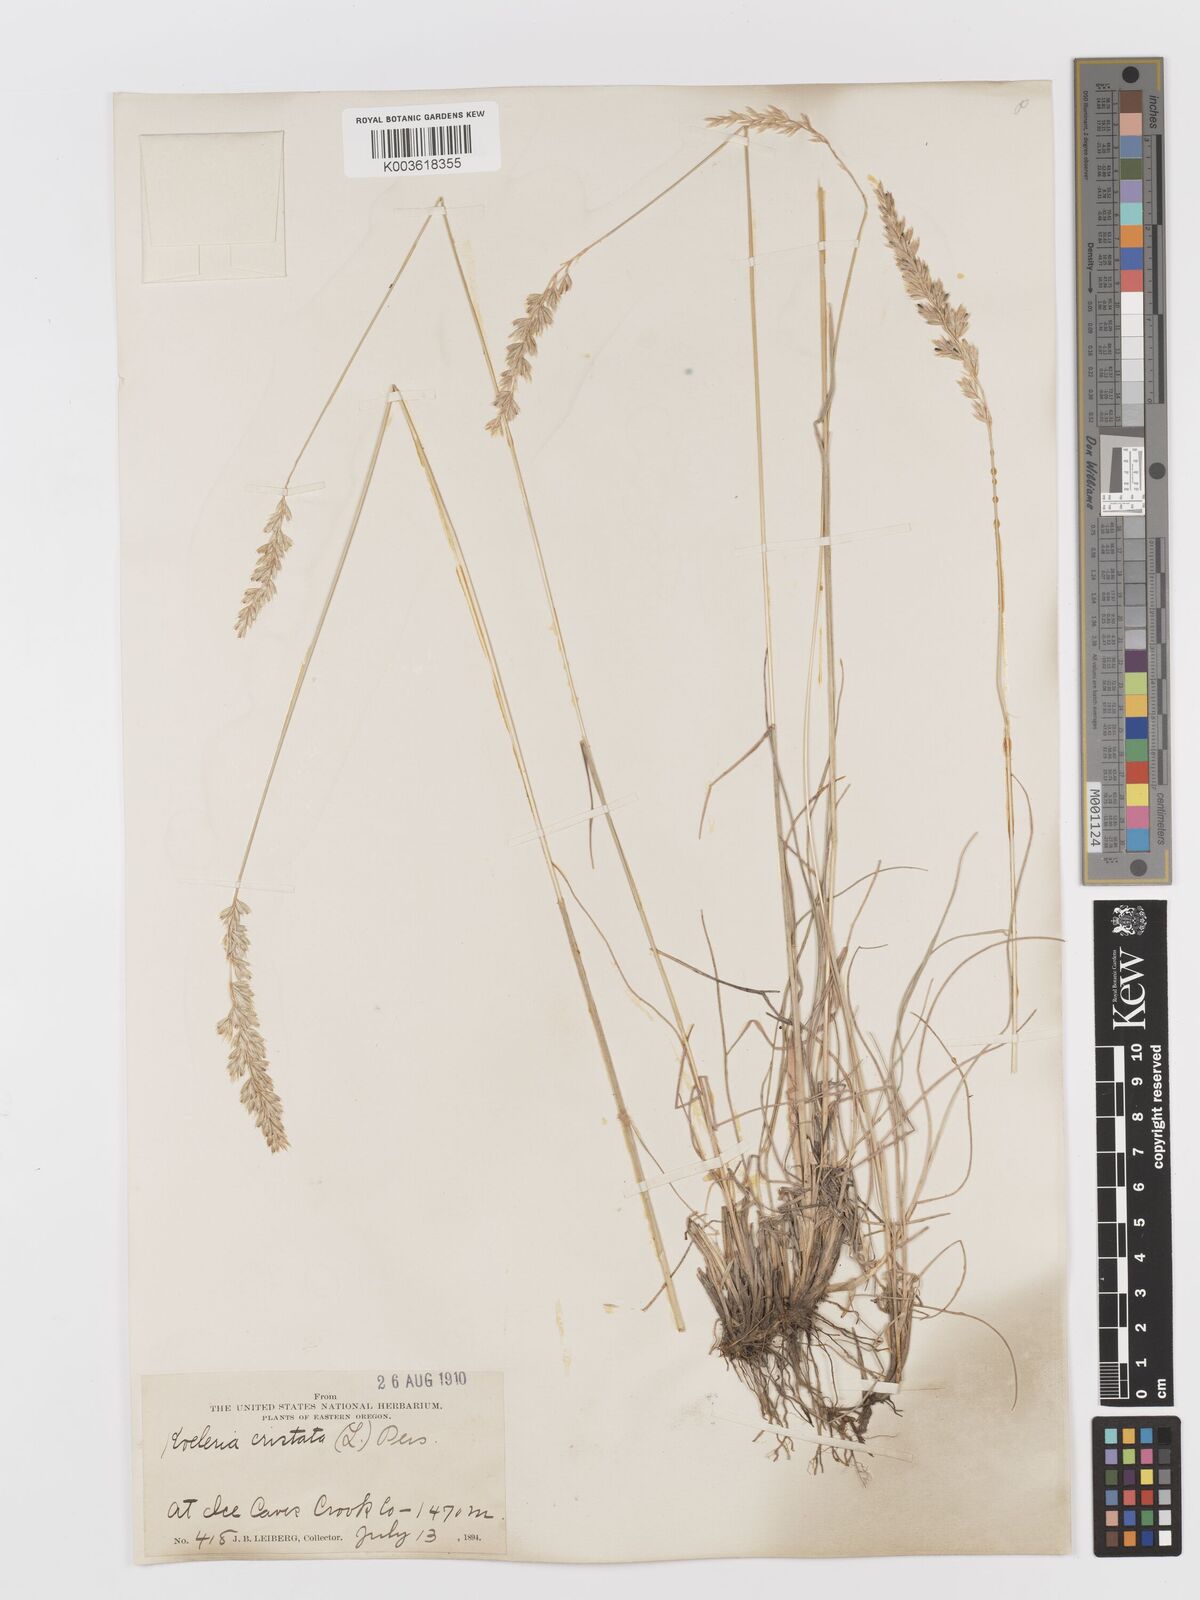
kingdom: Plantae
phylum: Tracheophyta
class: Liliopsida
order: Poales
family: Poaceae
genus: Koeleria
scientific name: Koeleria
